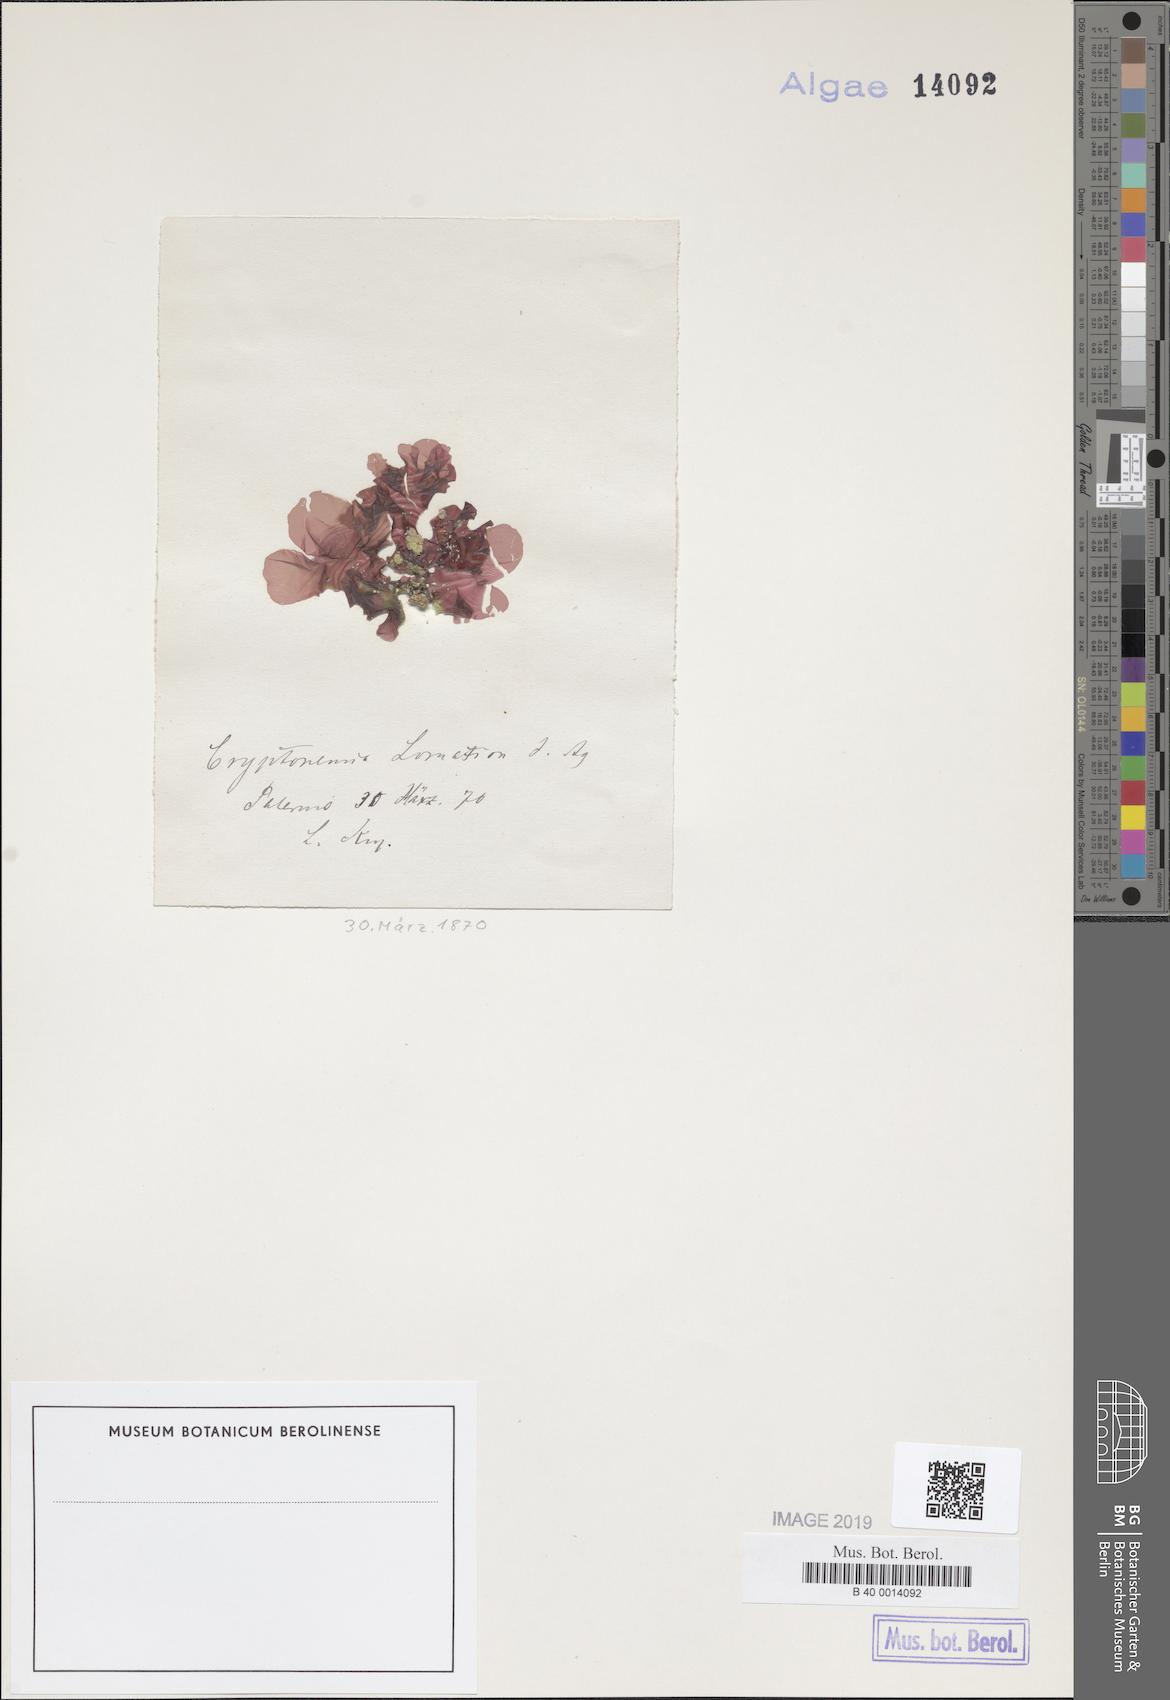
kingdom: Plantae
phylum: Rhodophyta
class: Florideophyceae
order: Halymeniales
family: Halymeniaceae
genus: Cryptonemia
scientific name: Cryptonemia lomation
